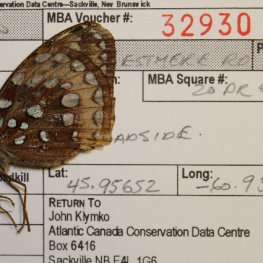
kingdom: Animalia
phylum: Arthropoda
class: Insecta
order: Lepidoptera
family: Nymphalidae
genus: Speyeria
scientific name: Speyeria cybele
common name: Great Spangled Fritillary
